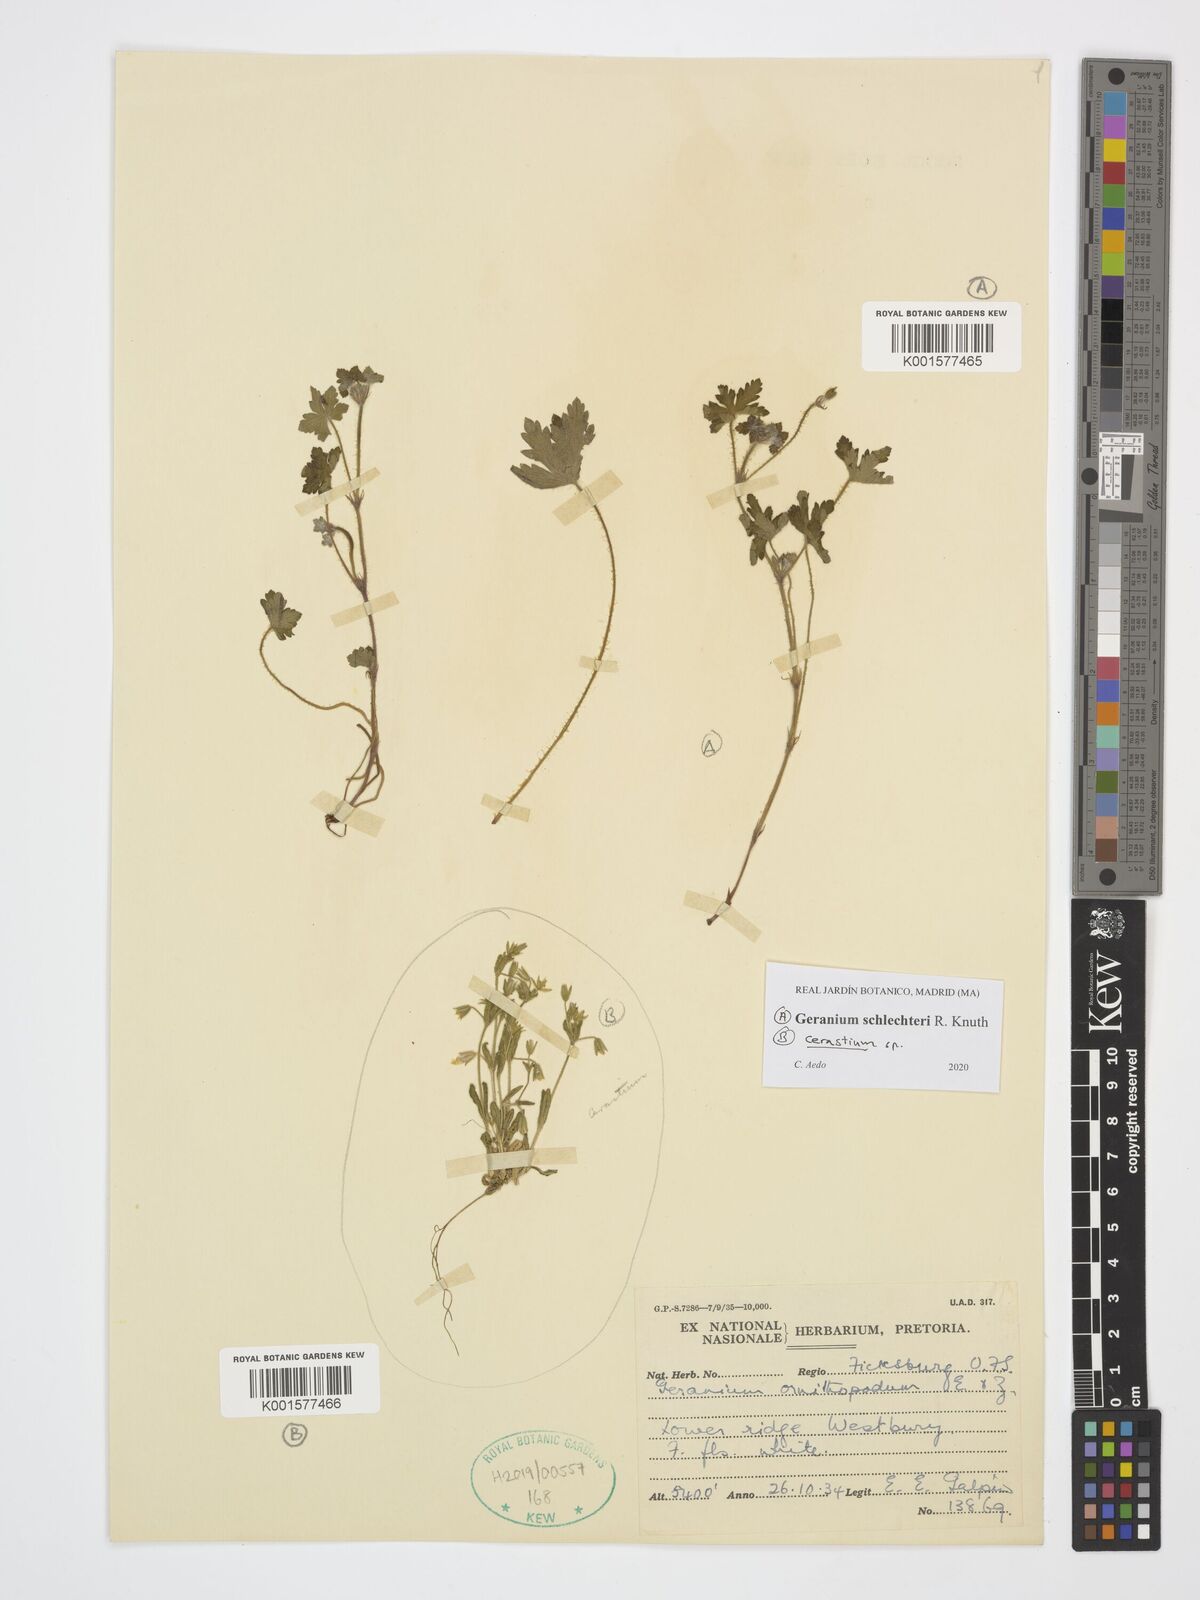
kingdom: Plantae
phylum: Tracheophyta
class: Magnoliopsida
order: Geraniales
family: Geraniaceae
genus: Geranium
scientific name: Geranium schlechteri
